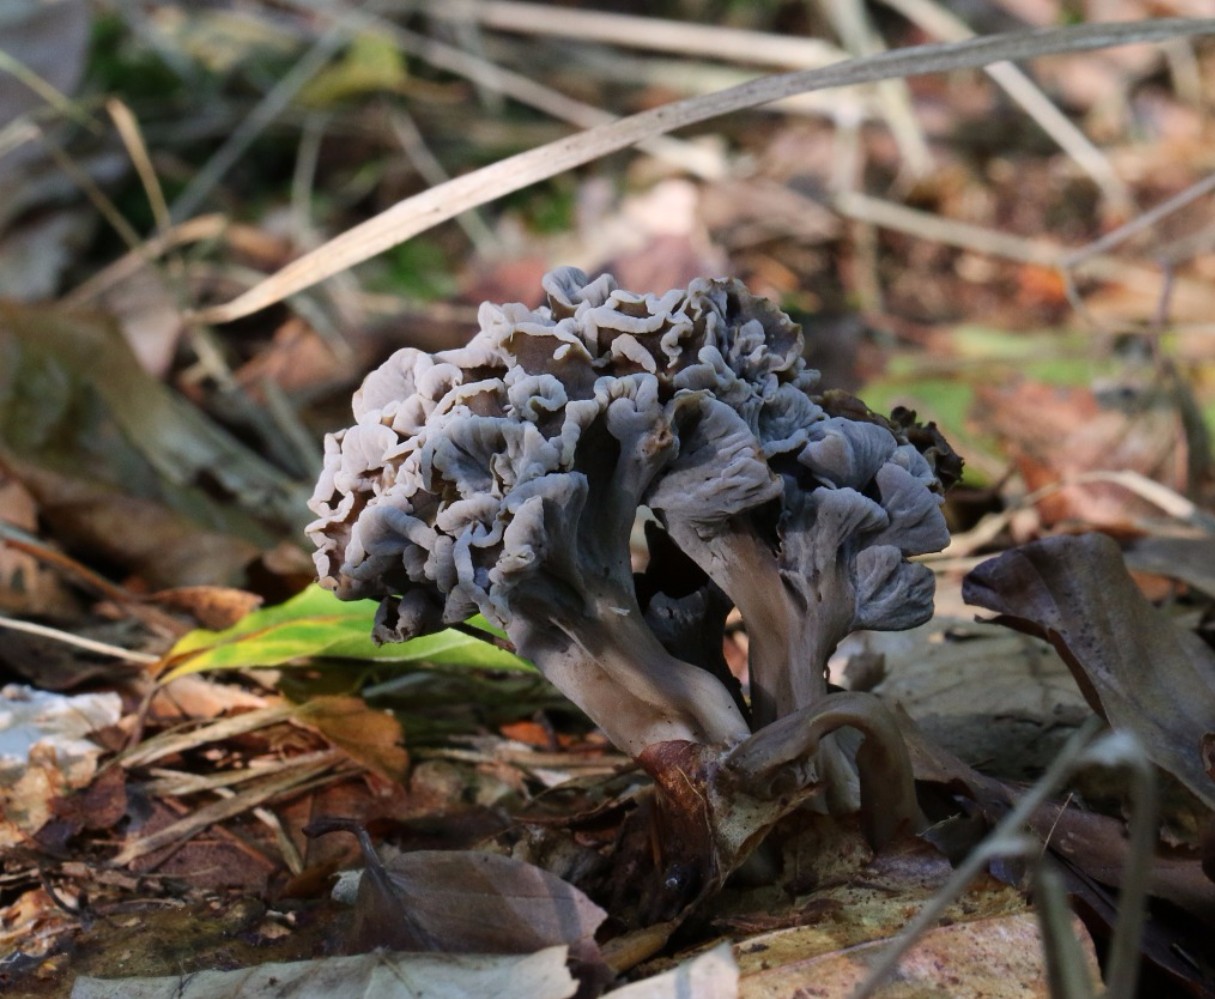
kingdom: Fungi
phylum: Basidiomycota
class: Agaricomycetes
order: Cantharellales
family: Hydnaceae
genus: Craterellus
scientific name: Craterellus undulatus
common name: liden kantarel
